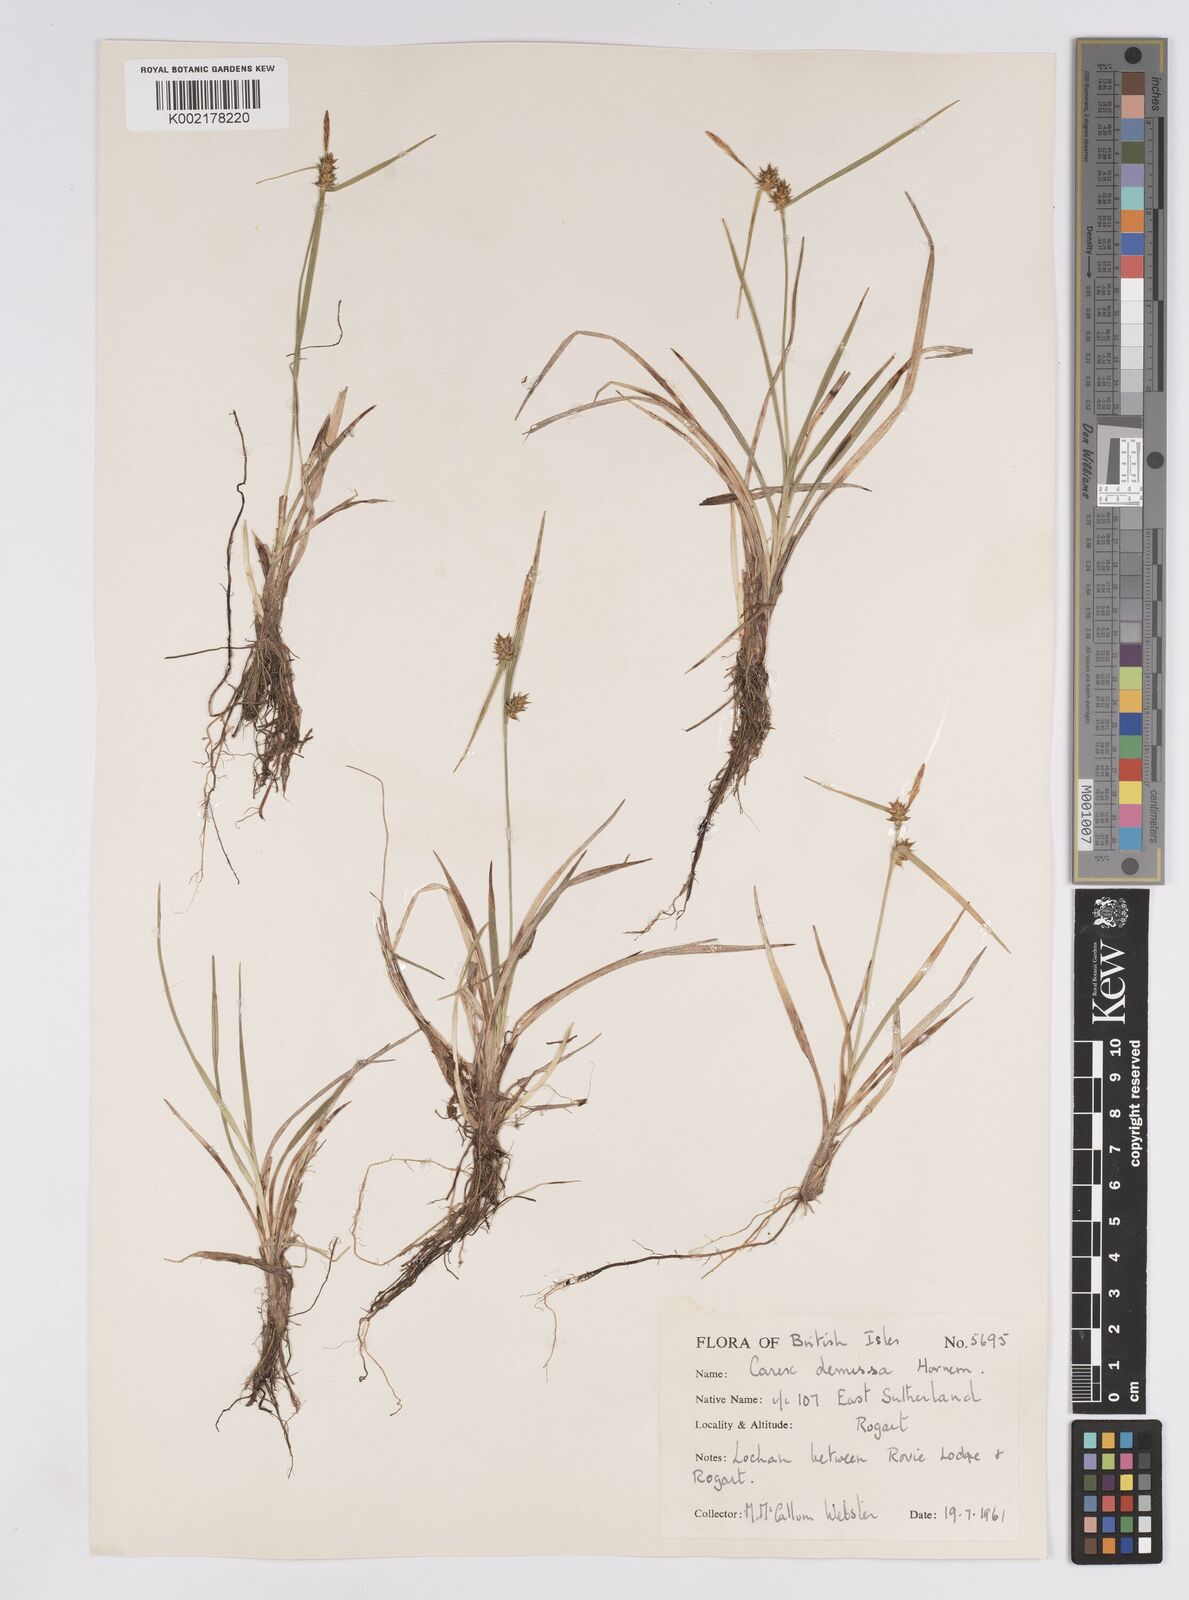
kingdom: Plantae
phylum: Tracheophyta
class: Liliopsida
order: Poales
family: Cyperaceae
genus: Carex
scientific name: Carex demissa
